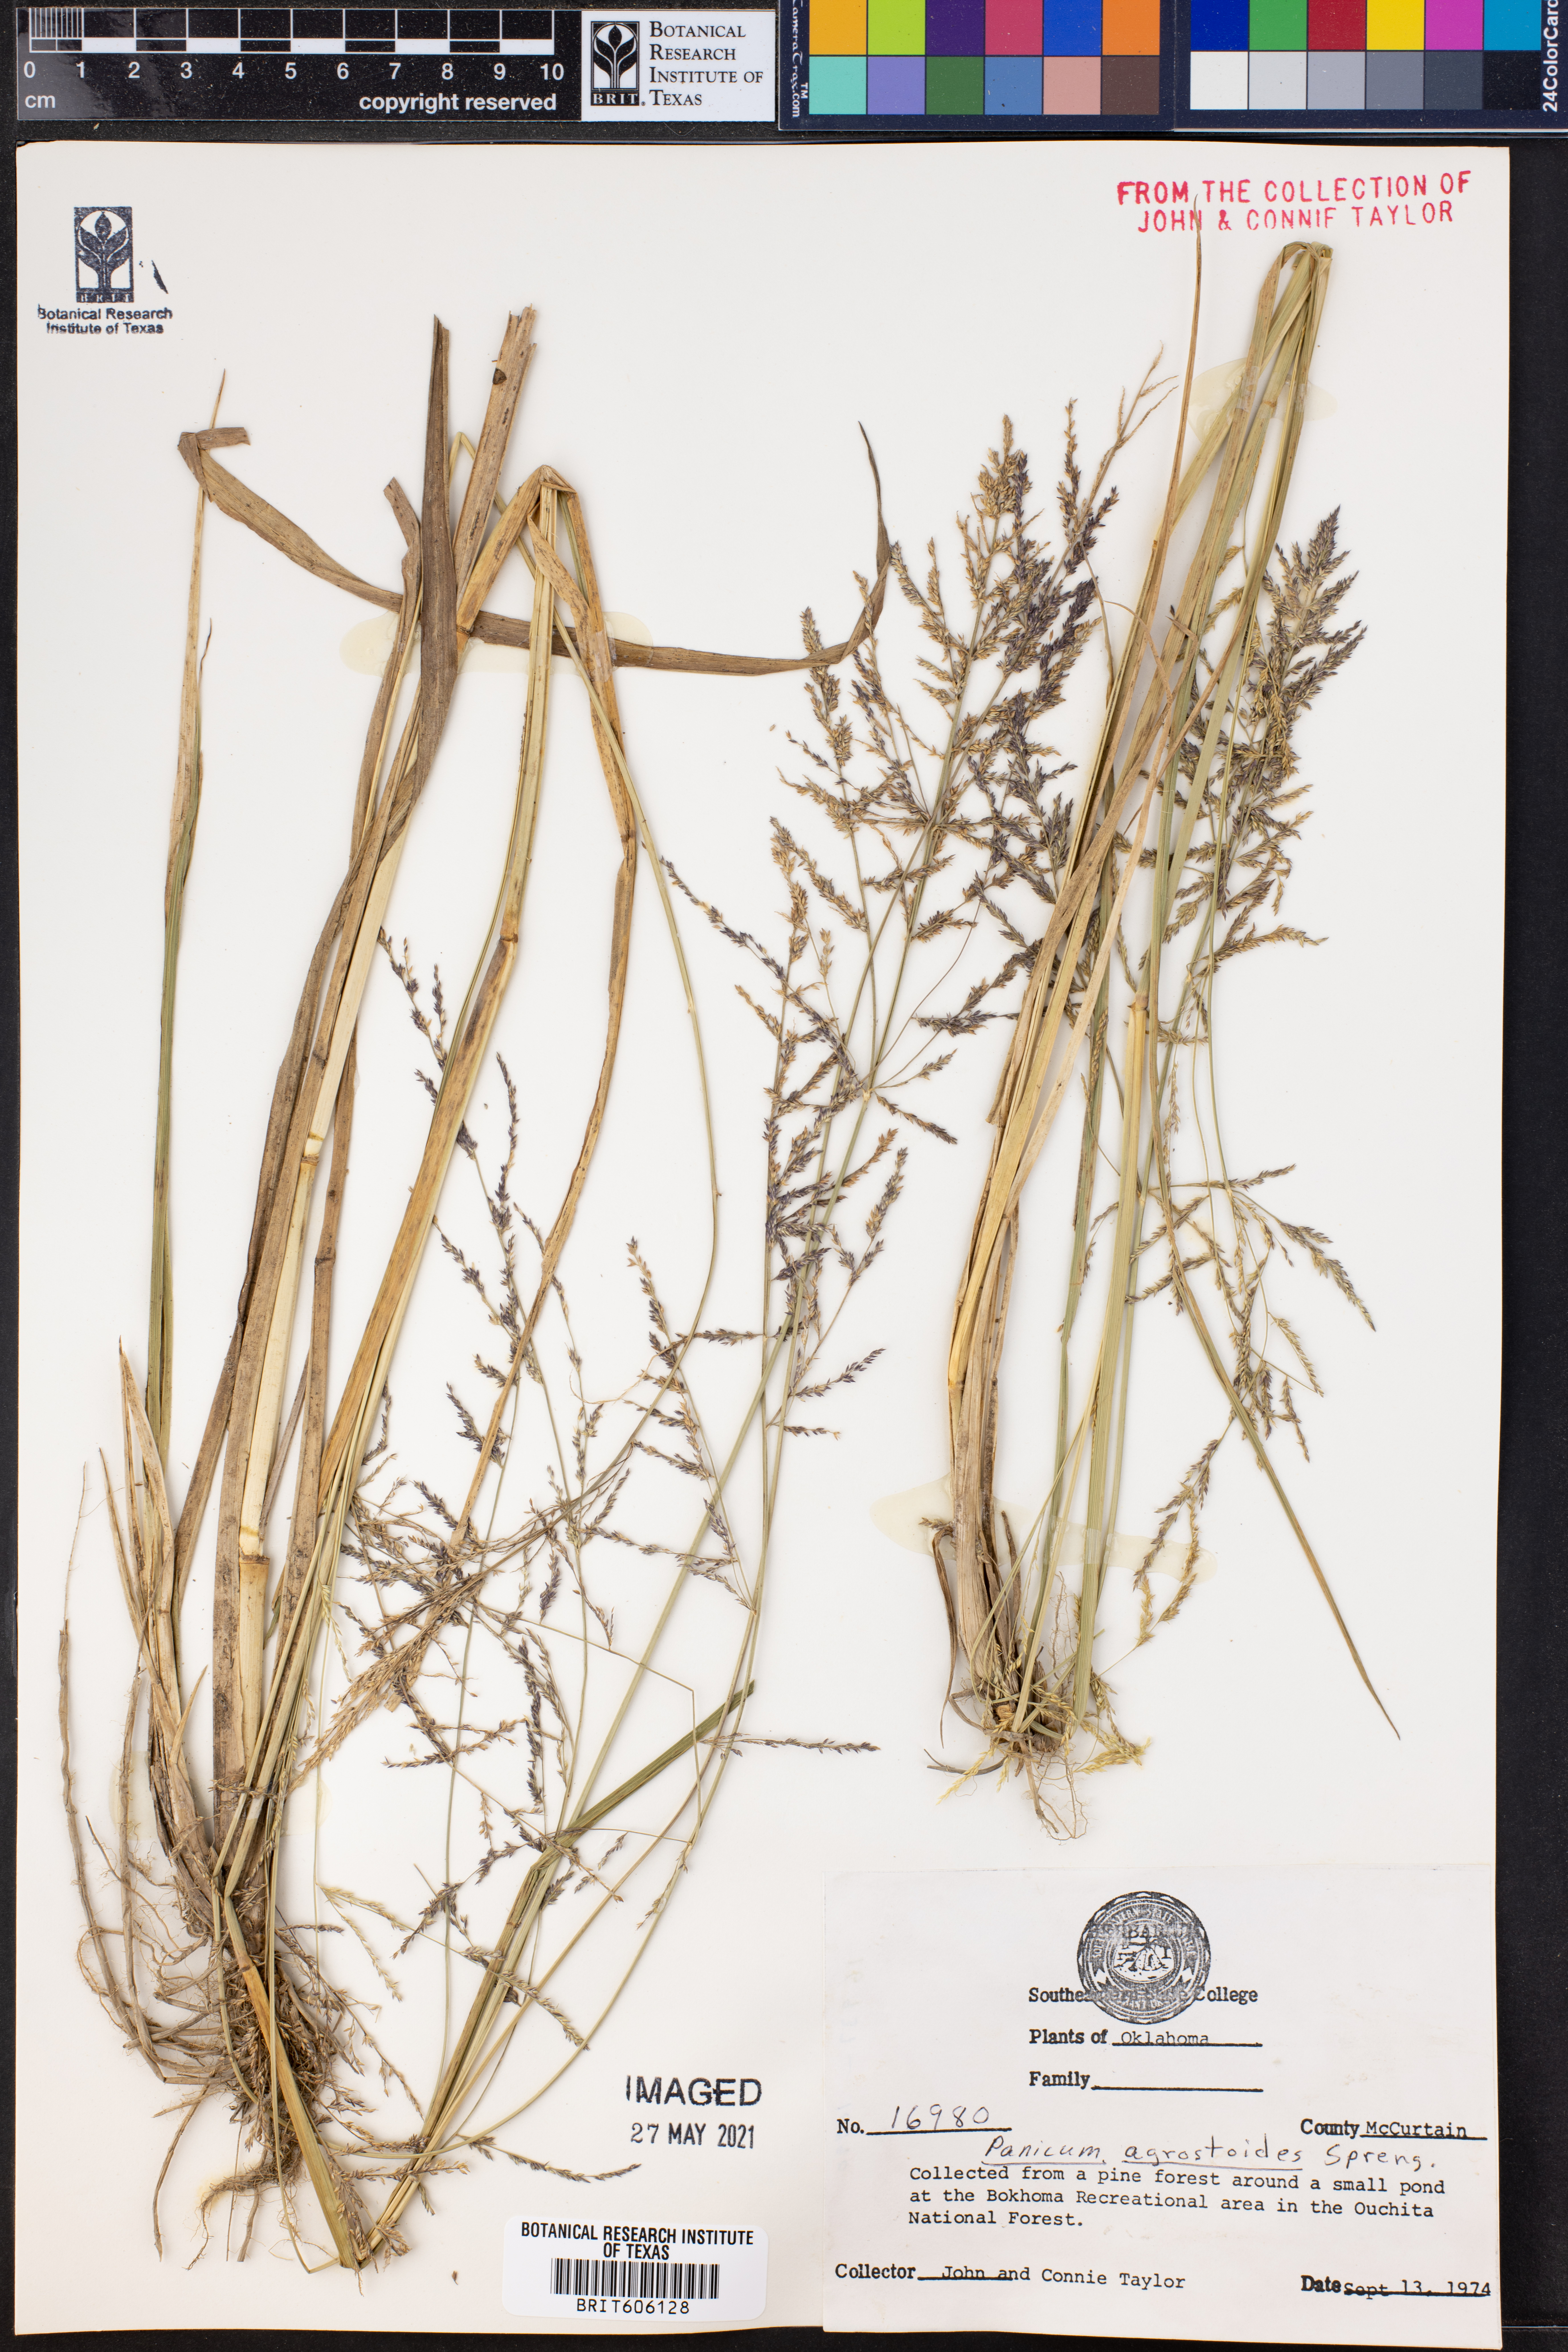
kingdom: Plantae
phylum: Tracheophyta
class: Liliopsida
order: Poales
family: Poaceae
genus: Steinchisma
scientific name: Steinchisma laxum
